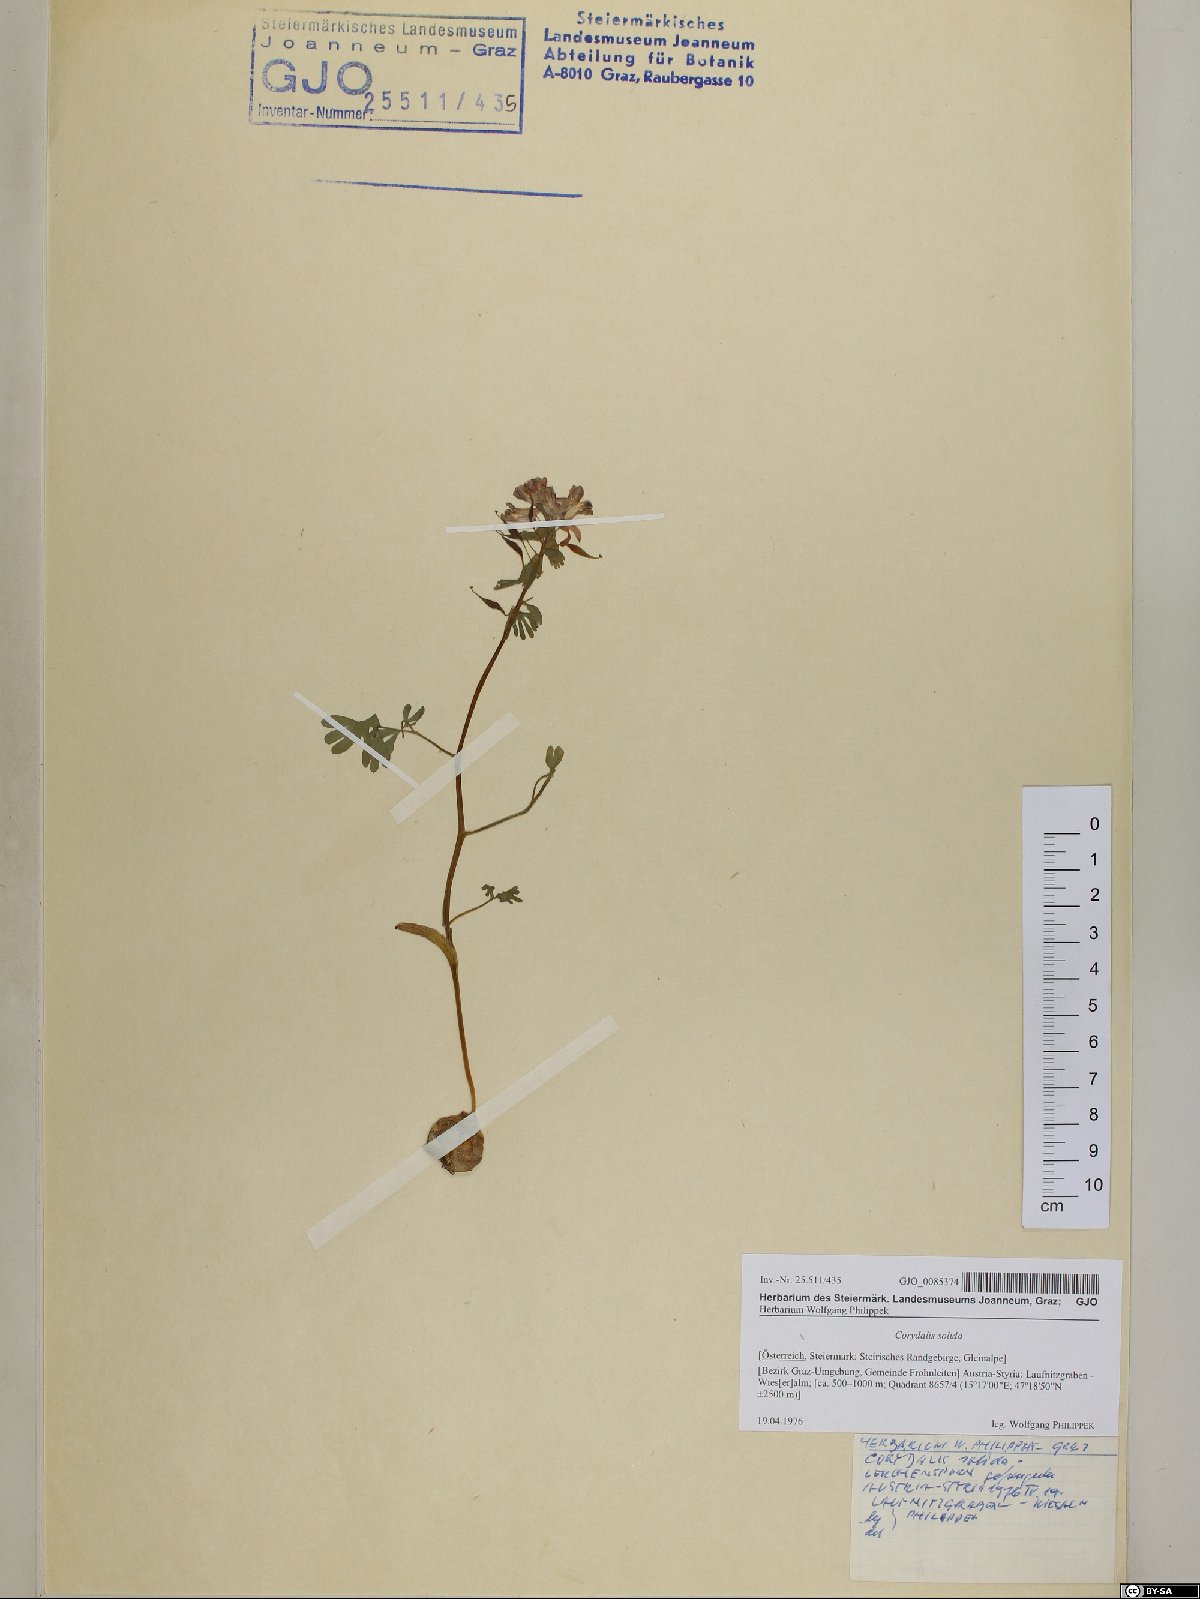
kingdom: Plantae
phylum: Tracheophyta
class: Magnoliopsida
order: Ranunculales
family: Papaveraceae
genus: Corydalis
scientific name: Corydalis solida
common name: Bird-in-a-bush
